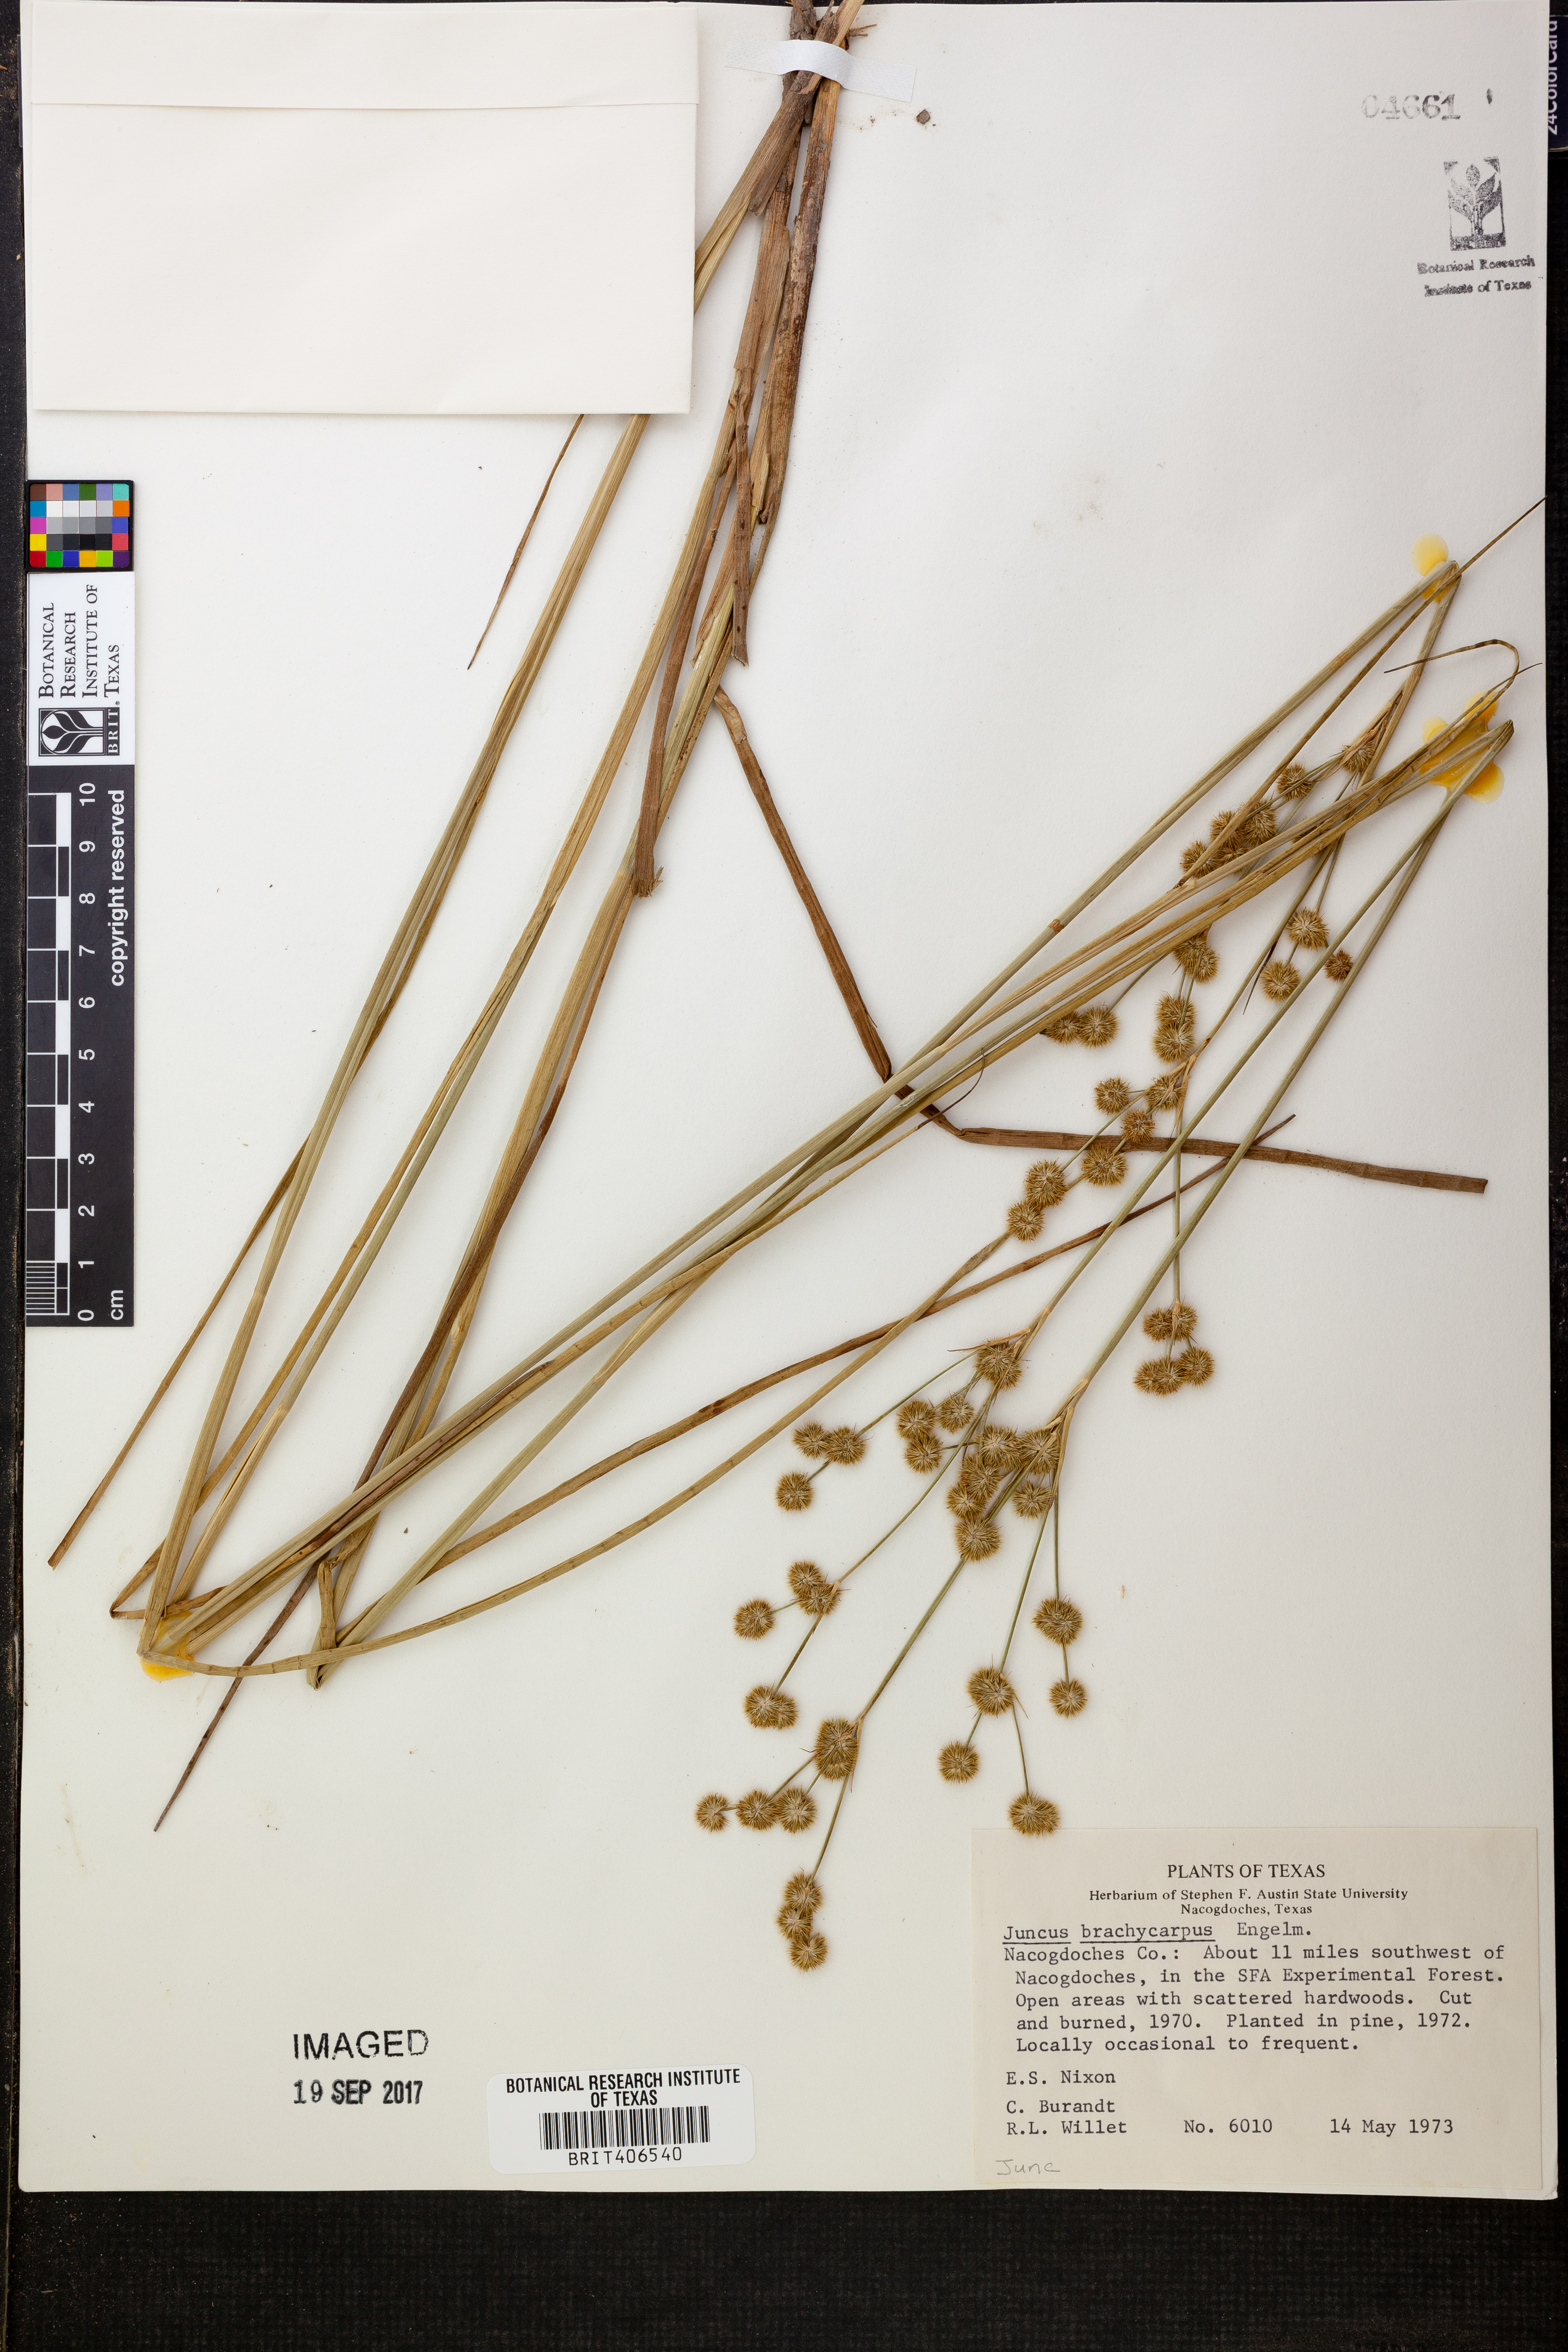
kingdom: Plantae
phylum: Tracheophyta
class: Liliopsida
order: Poales
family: Juncaceae
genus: Juncus
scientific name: Juncus brachycarpus
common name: Shore rush
